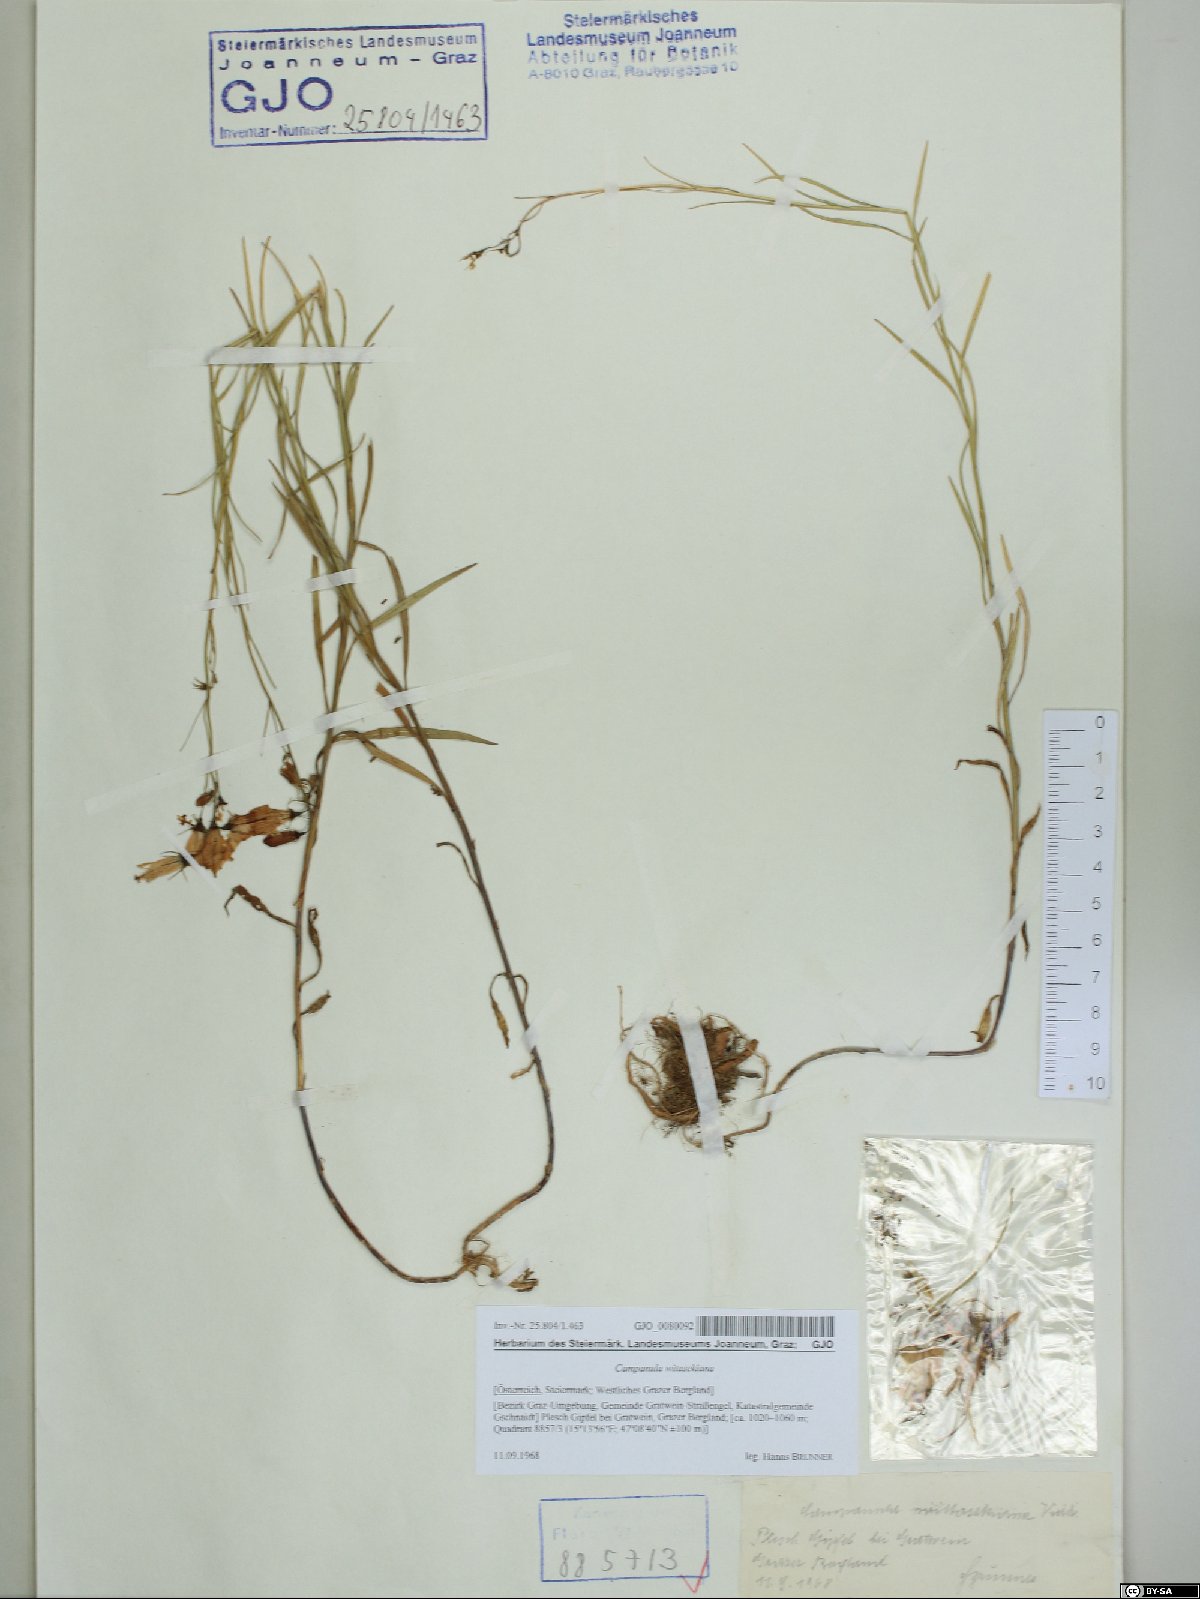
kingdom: Plantae
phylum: Tracheophyta
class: Magnoliopsida
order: Asterales
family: Campanulaceae
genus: Campanula
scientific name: Campanula witasekiana
